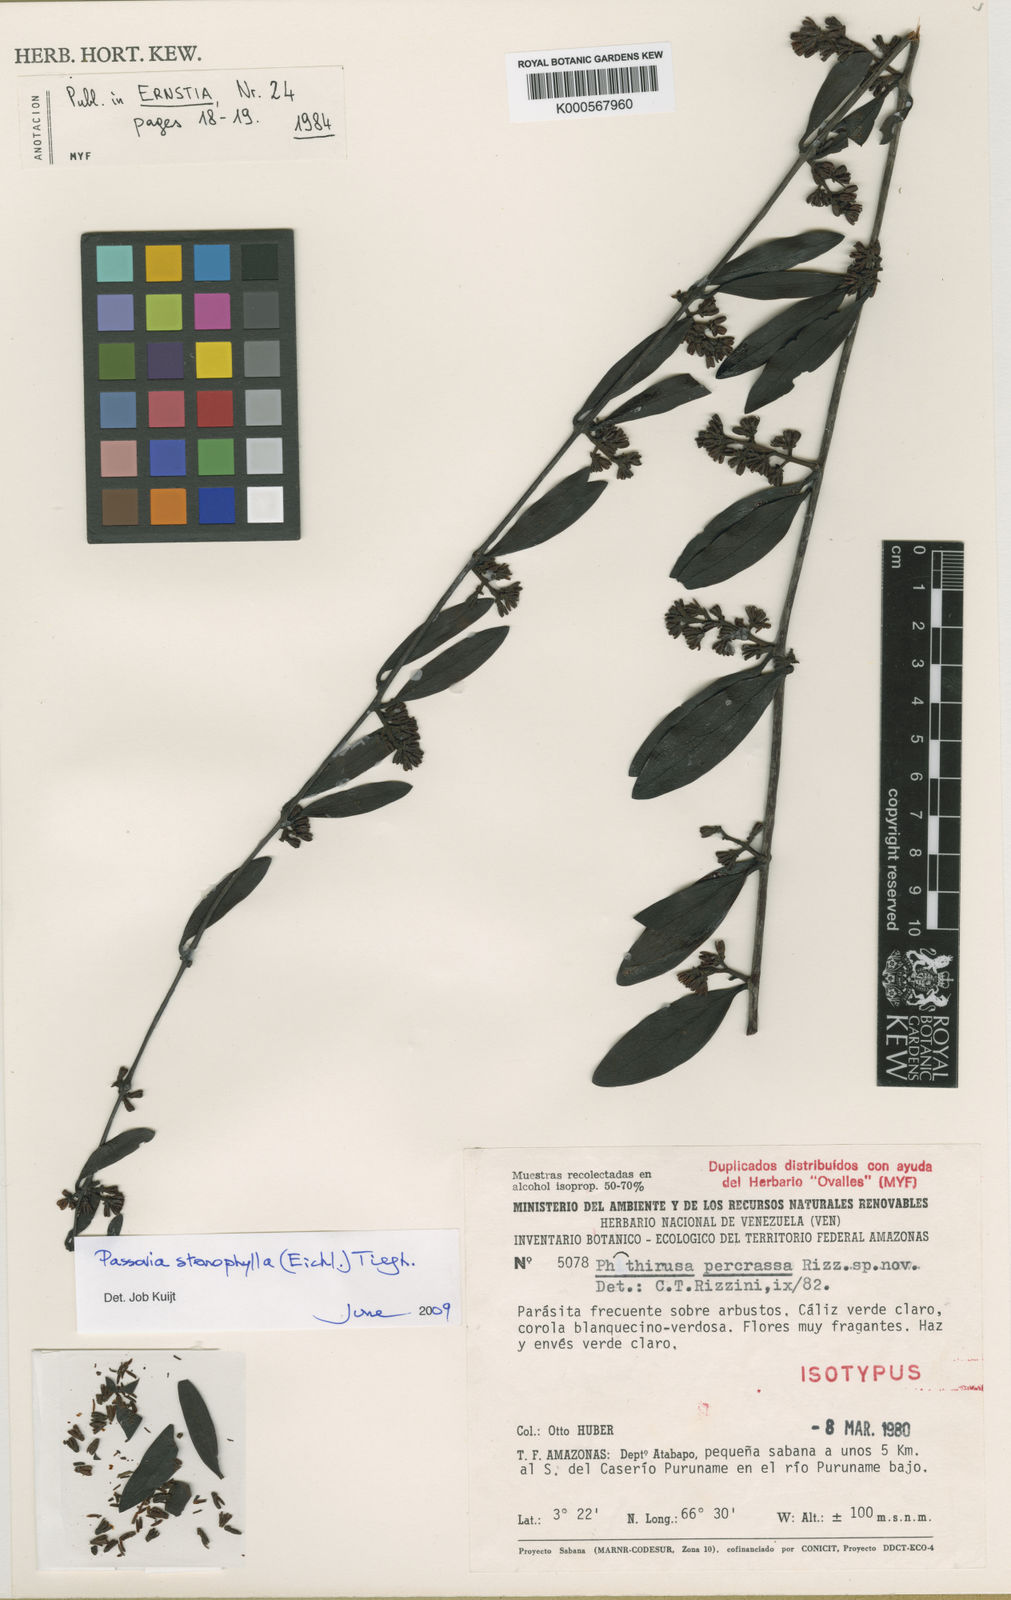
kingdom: Plantae
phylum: Tracheophyta
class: Magnoliopsida
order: Santalales
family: Loranthaceae
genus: Phthirusa
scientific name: Phthirusa stenophylla
